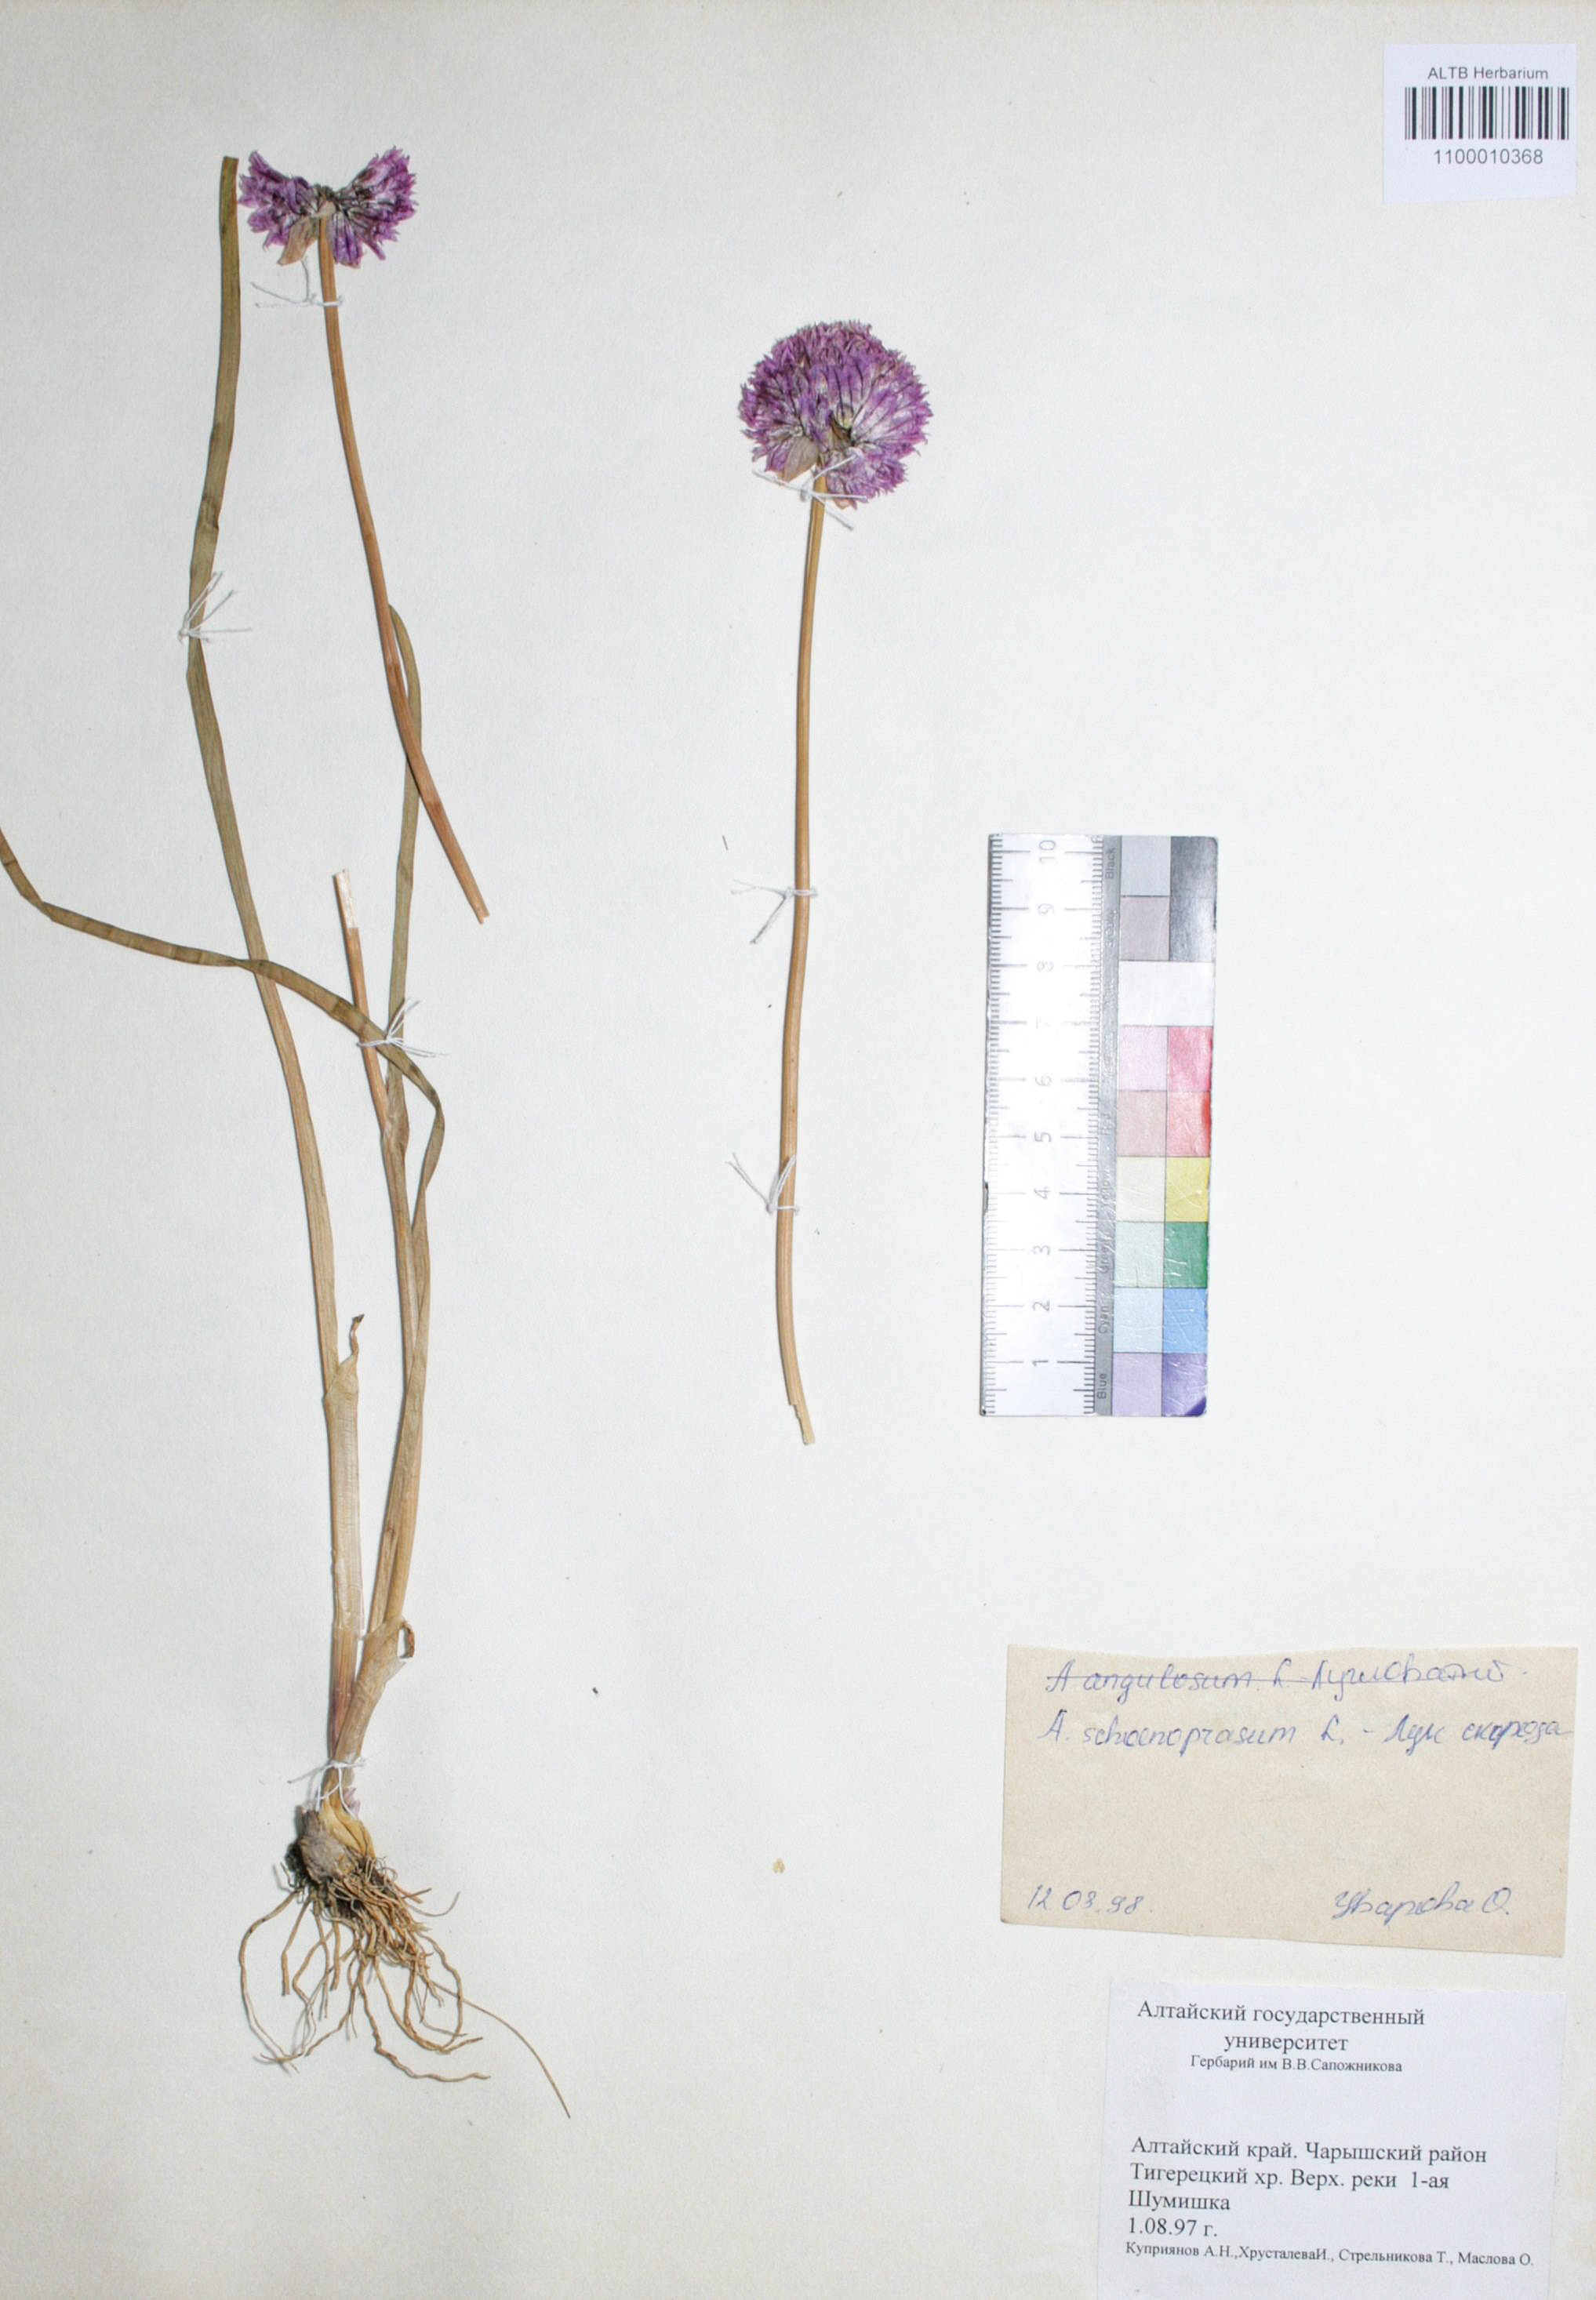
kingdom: Plantae
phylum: Tracheophyta
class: Liliopsida
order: Asparagales
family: Amaryllidaceae
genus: Allium
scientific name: Allium schoenoprasum
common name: Chives
